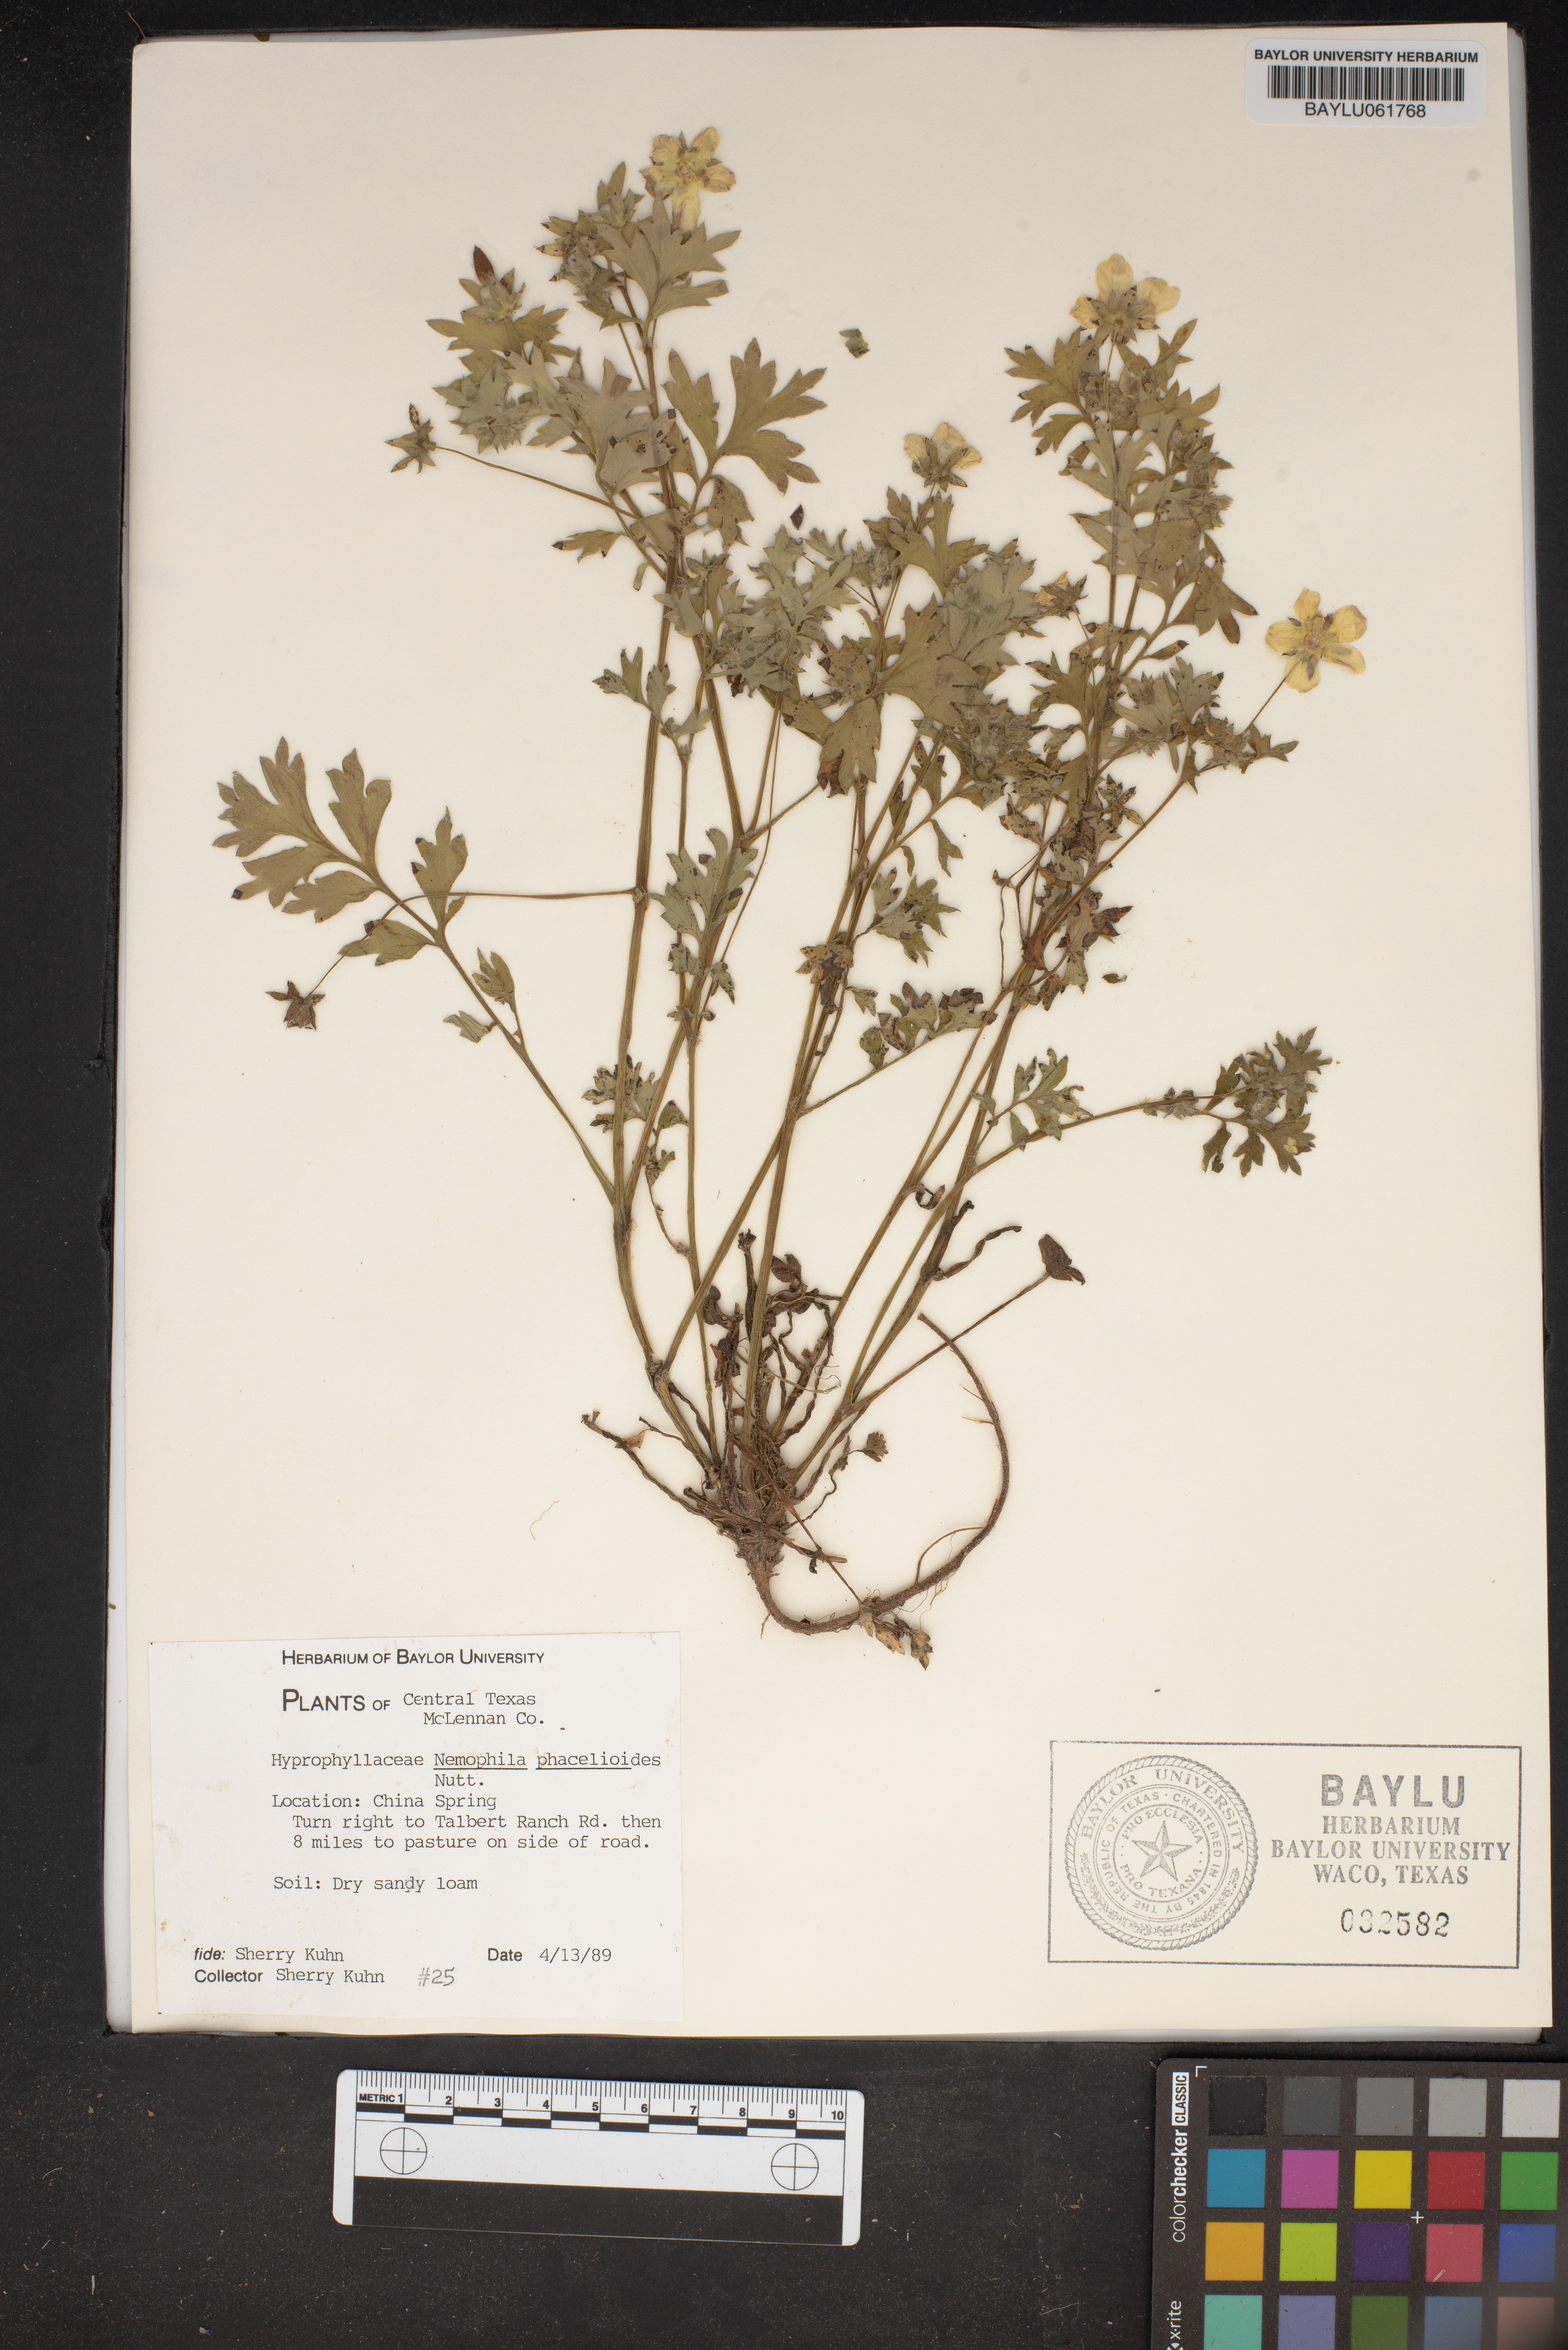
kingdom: Plantae
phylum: Tracheophyta
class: Magnoliopsida
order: Boraginales
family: Hydrophyllaceae
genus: Nemophila
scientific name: Nemophila phacelioides
